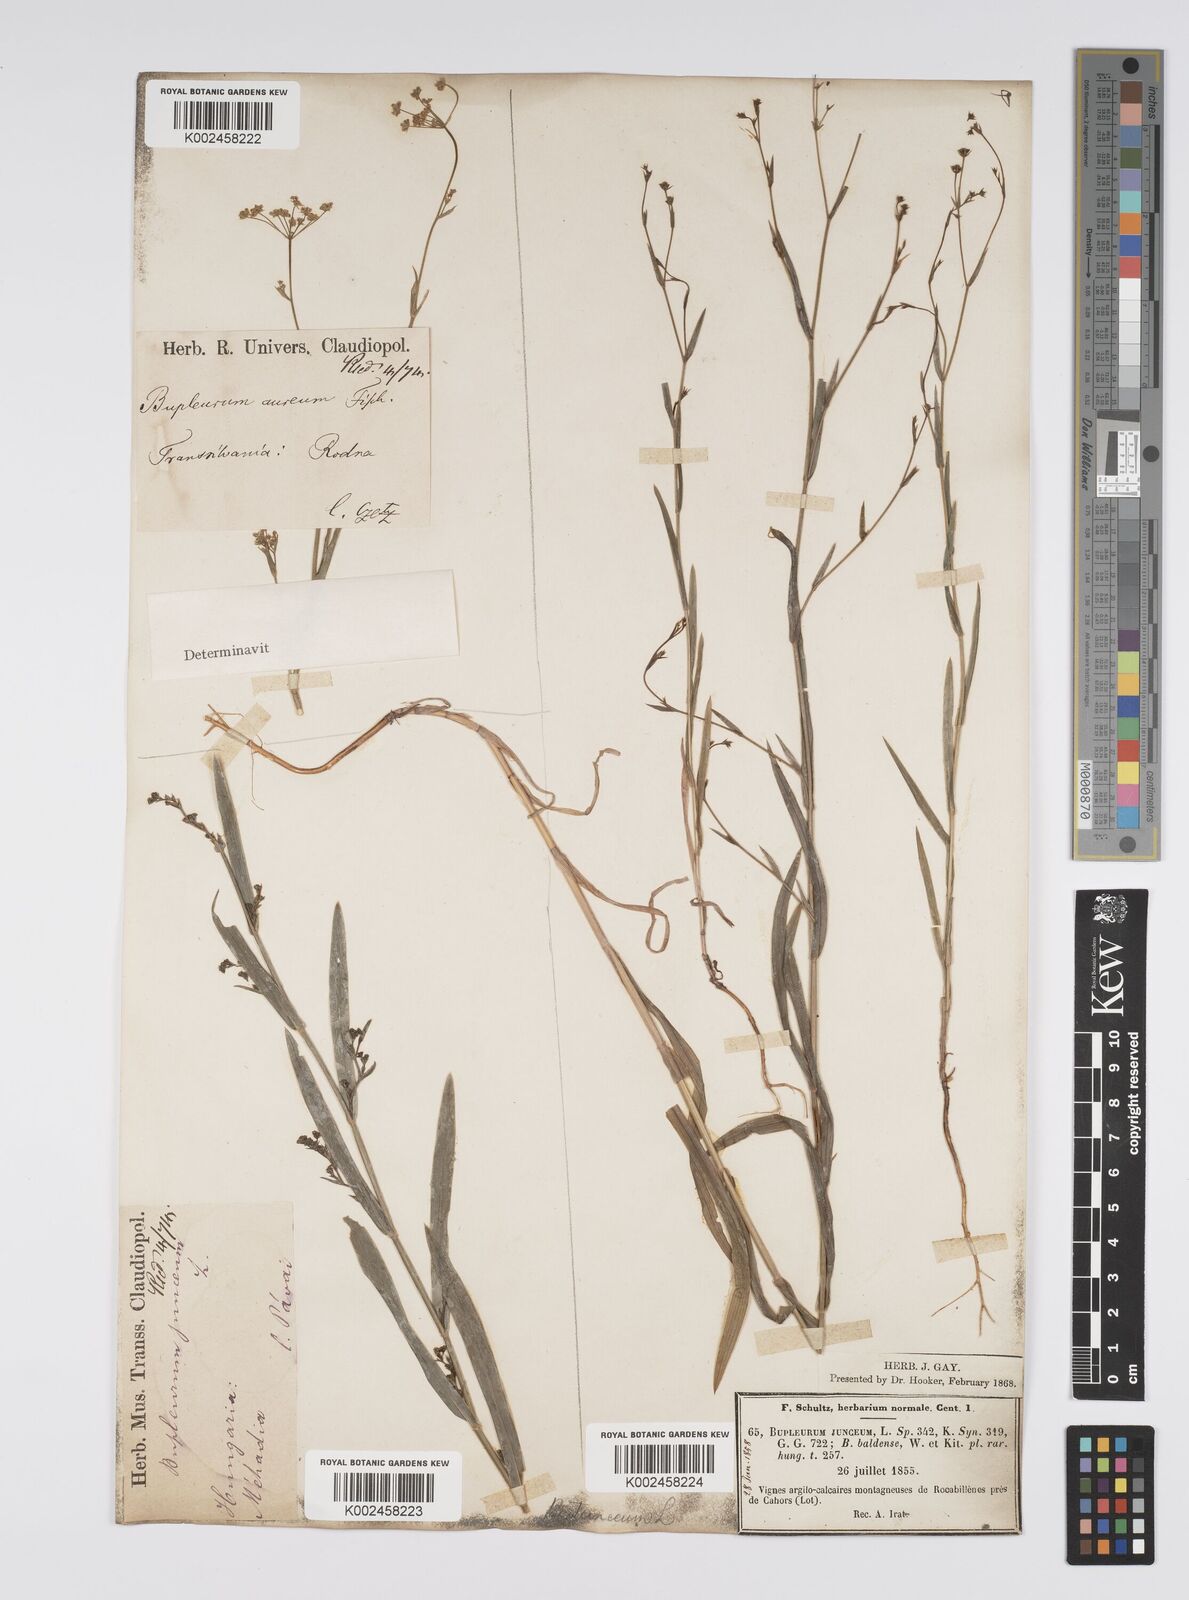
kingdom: Plantae
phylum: Tracheophyta
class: Magnoliopsida
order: Apiales
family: Apiaceae
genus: Bupleurum
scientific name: Bupleurum praealtum
